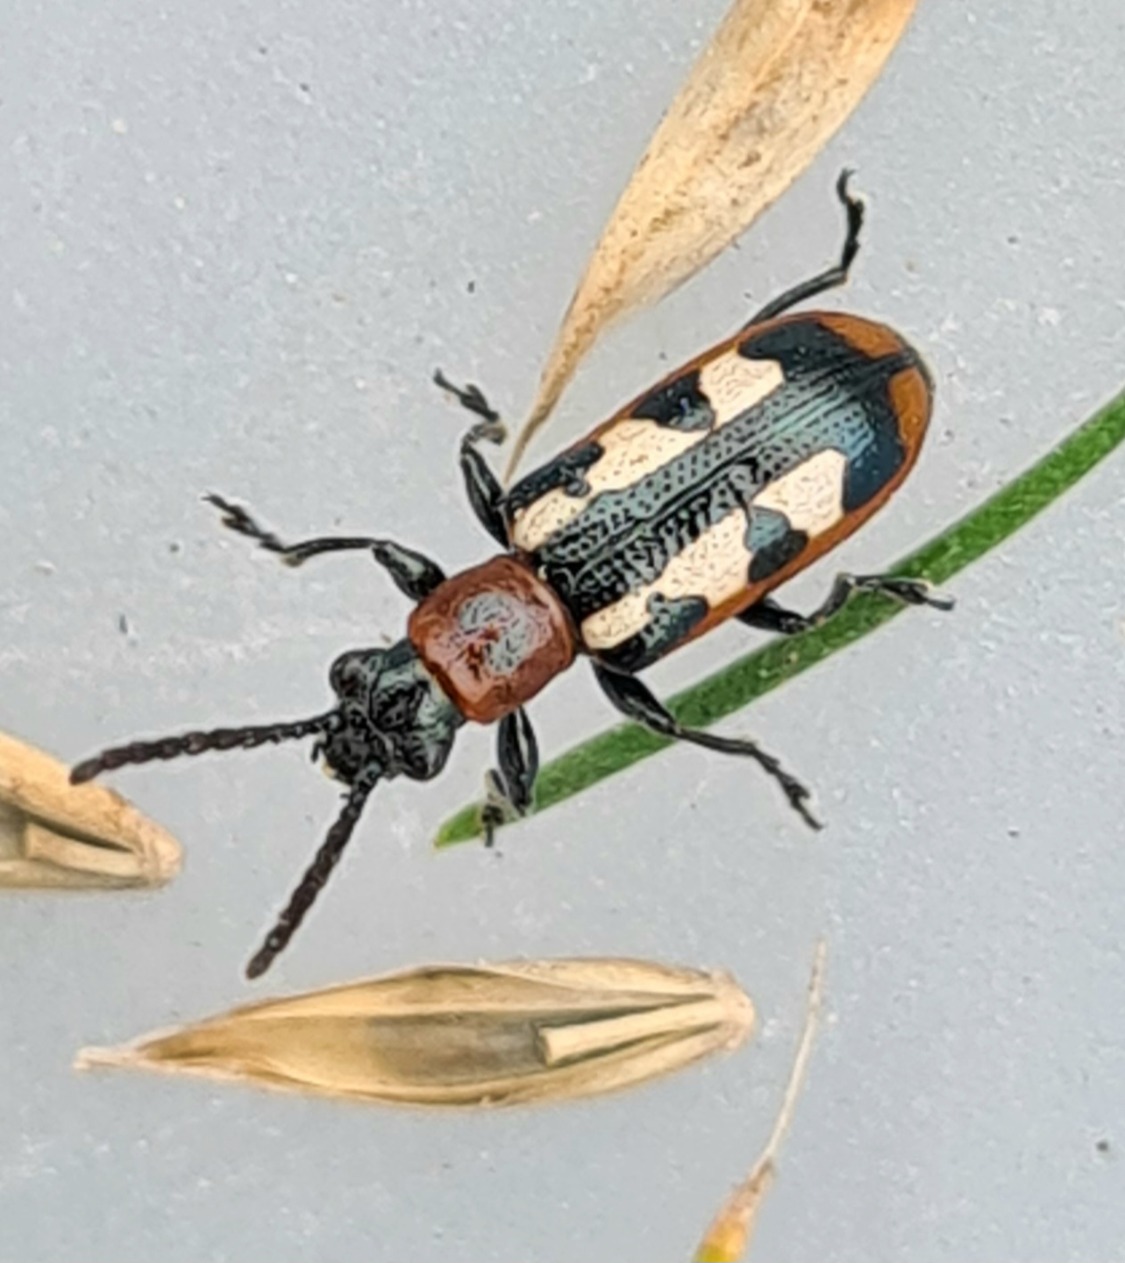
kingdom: Animalia
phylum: Arthropoda
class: Insecta
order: Coleoptera
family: Chrysomelidae
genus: Crioceris
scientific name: Crioceris asparagi
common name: Gulplettet aspargesbille
